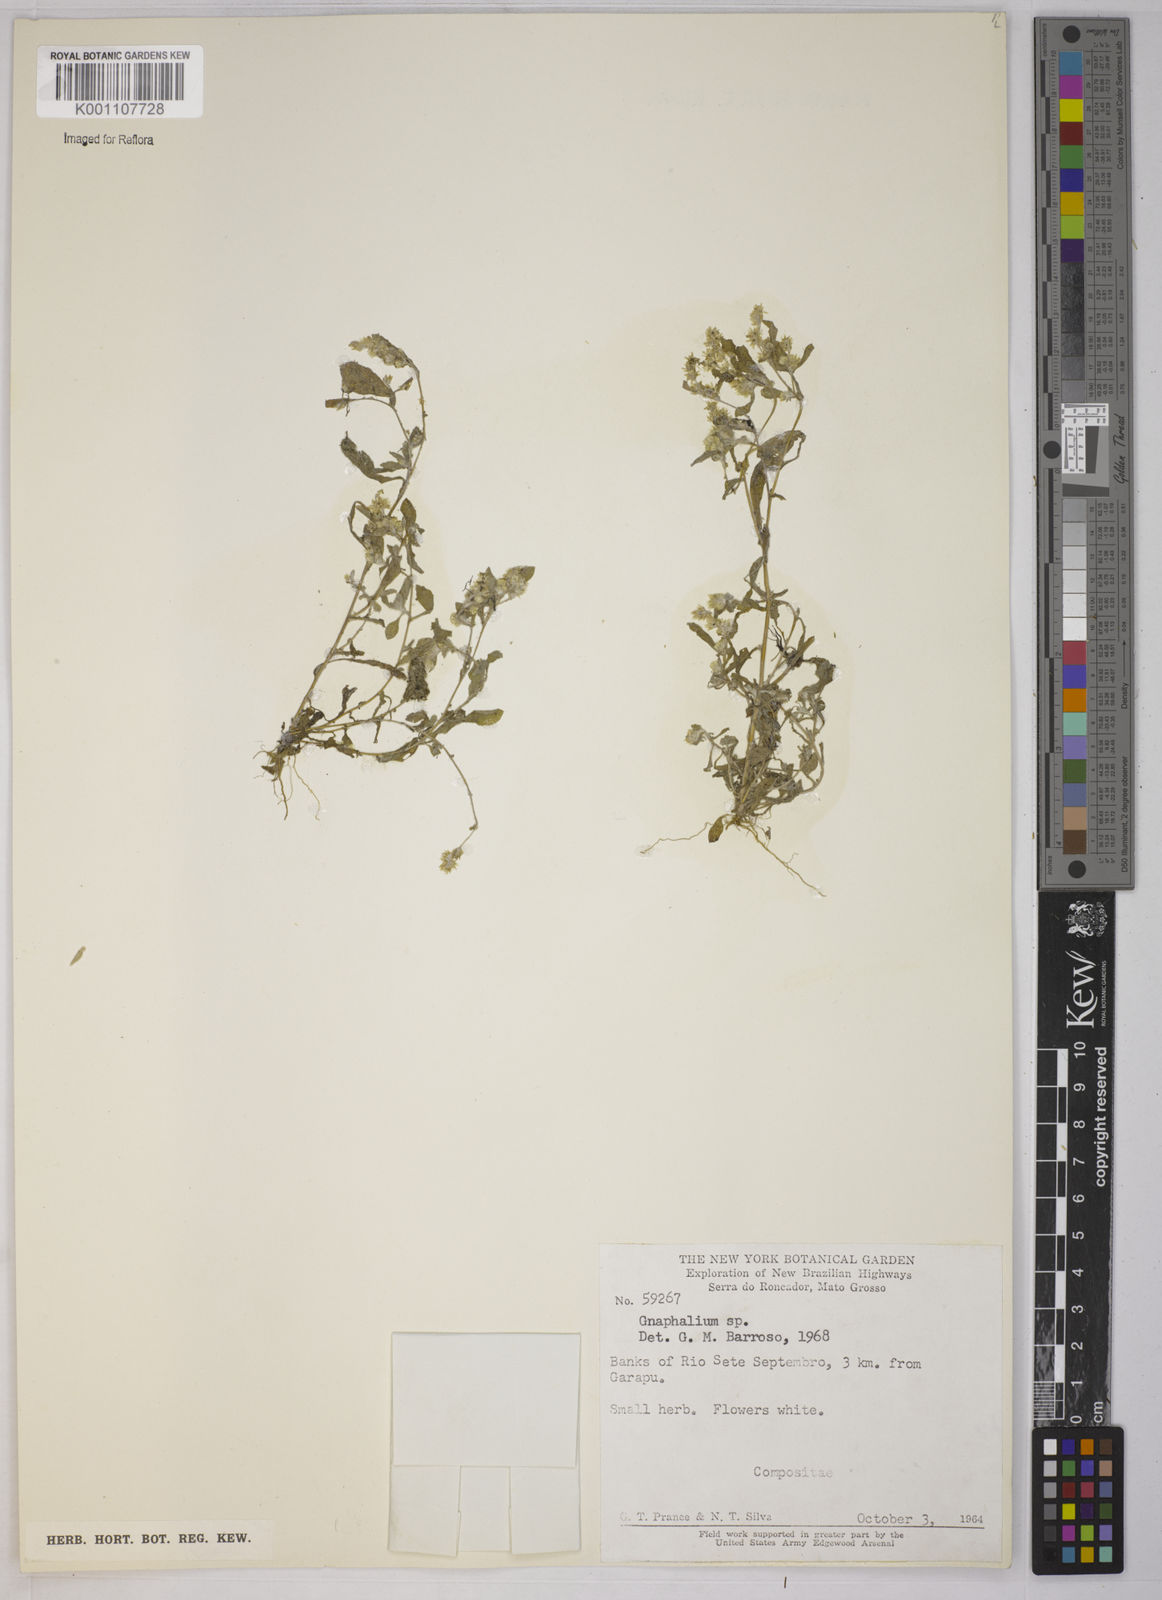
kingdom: Plantae
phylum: Tracheophyta
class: Magnoliopsida
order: Asterales
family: Asteraceae
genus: Gnaphalium
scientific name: Gnaphalium
